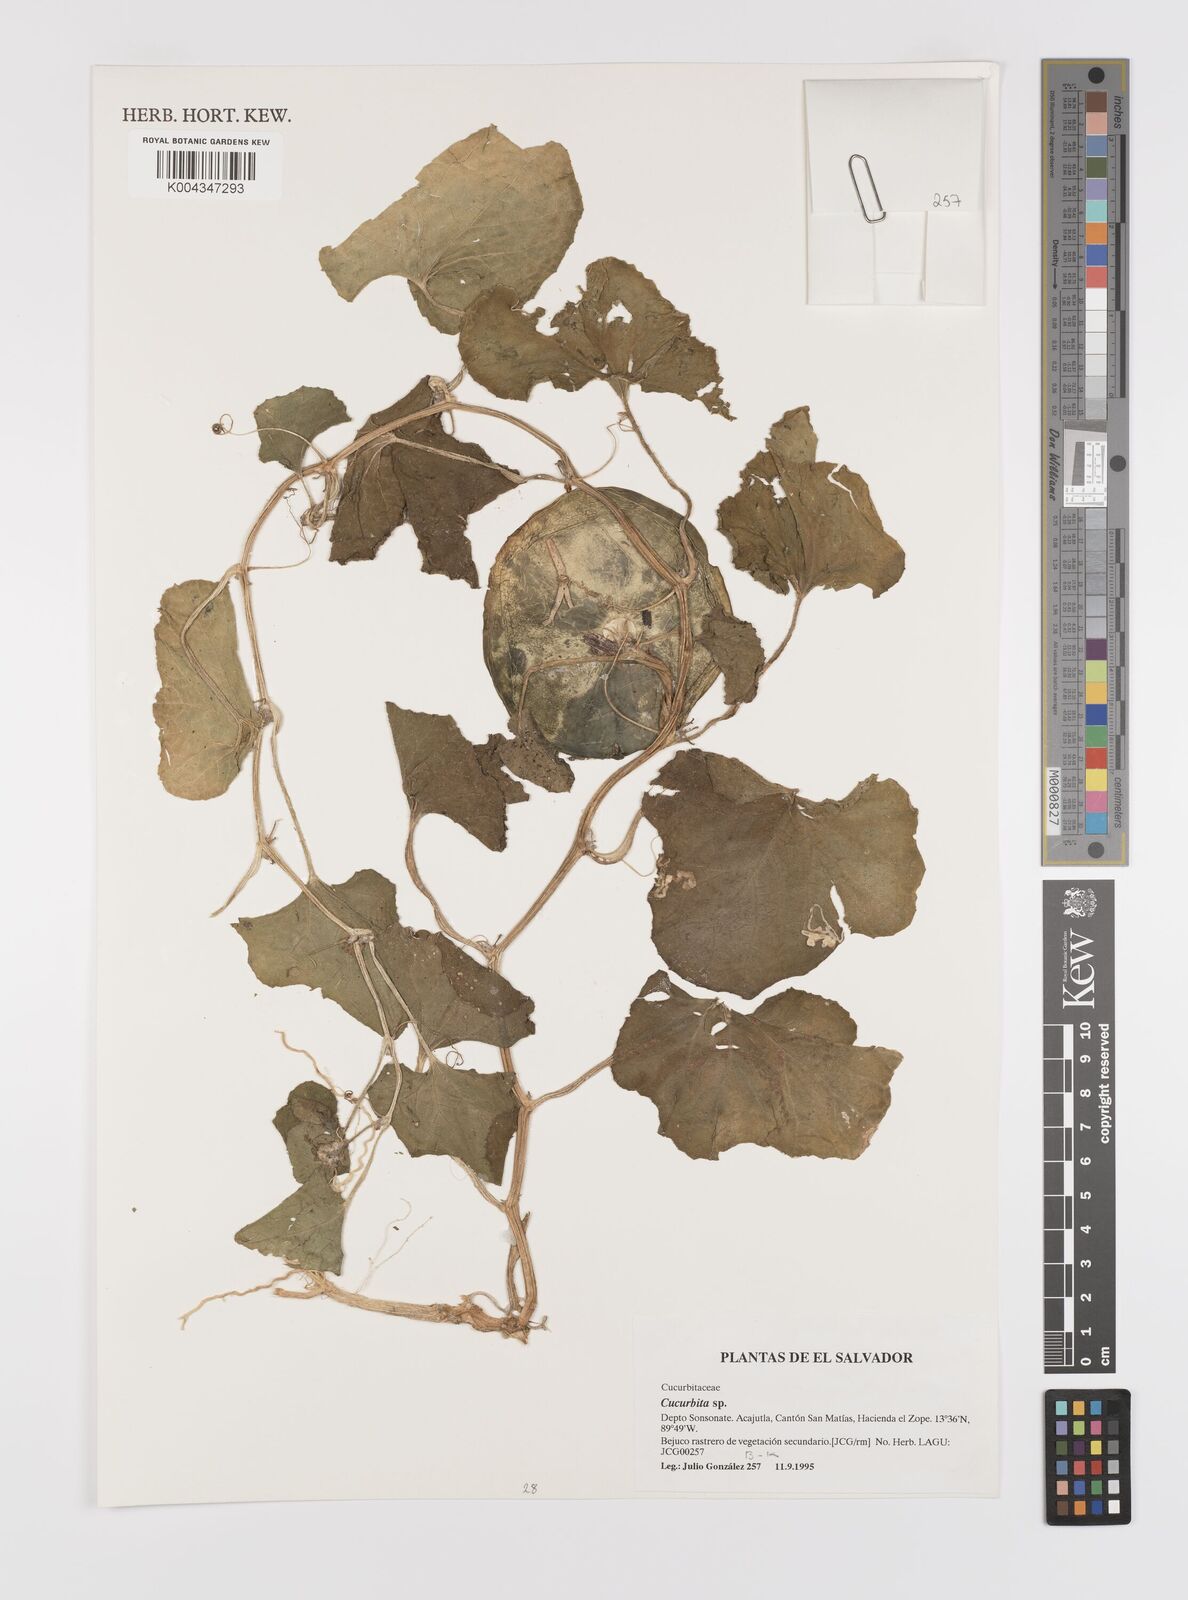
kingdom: Plantae
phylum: Tracheophyta
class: Magnoliopsida
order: Cucurbitales
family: Cucurbitaceae
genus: Cucurbita
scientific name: Cucurbita
